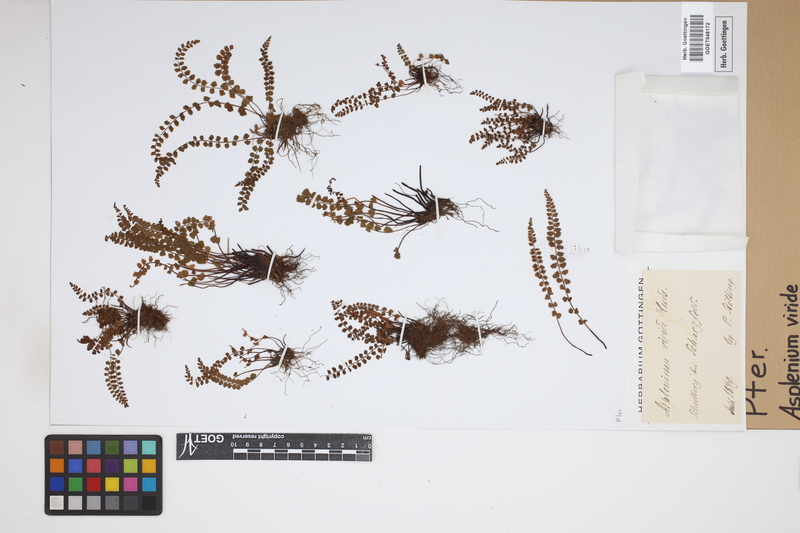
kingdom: Plantae
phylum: Tracheophyta
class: Polypodiopsida
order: Polypodiales
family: Aspleniaceae
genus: Asplenium
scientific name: Asplenium viride
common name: Green spleenwort
